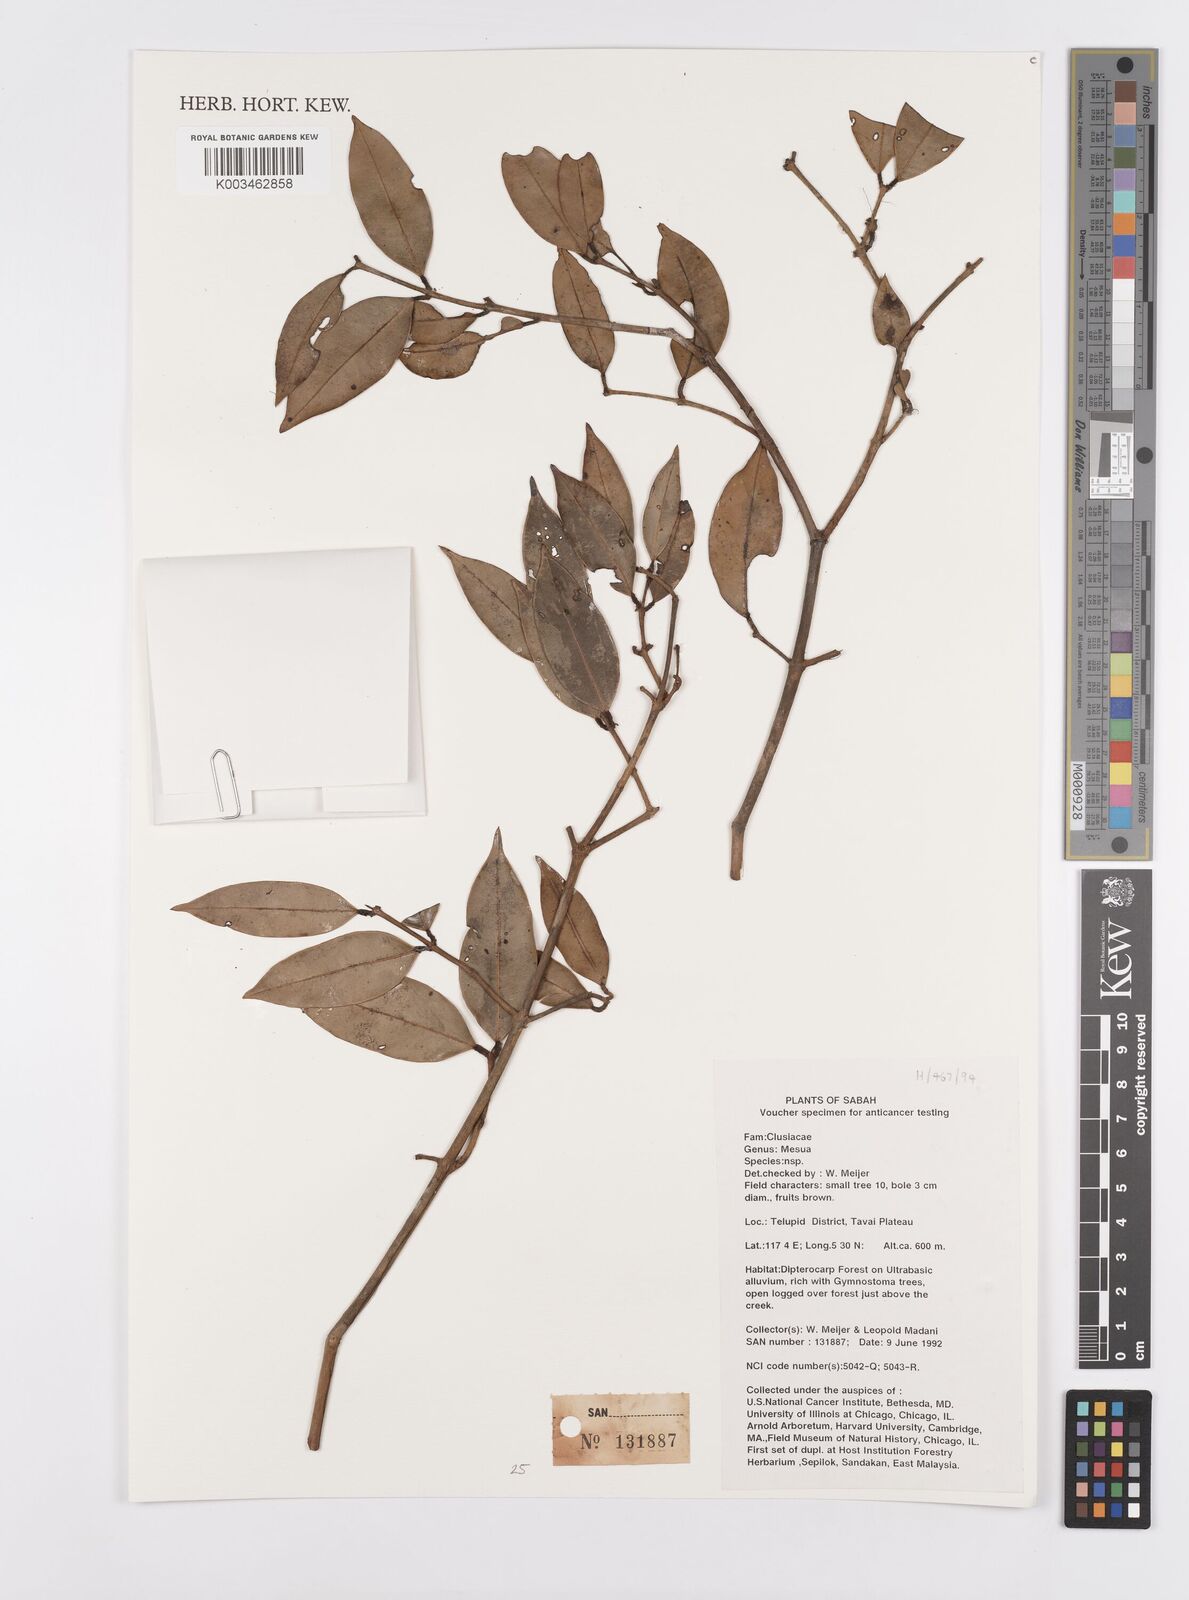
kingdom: Plantae
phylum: Tracheophyta
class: Magnoliopsida
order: Malpighiales
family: Calophyllaceae
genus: Mesua
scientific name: Mesua
